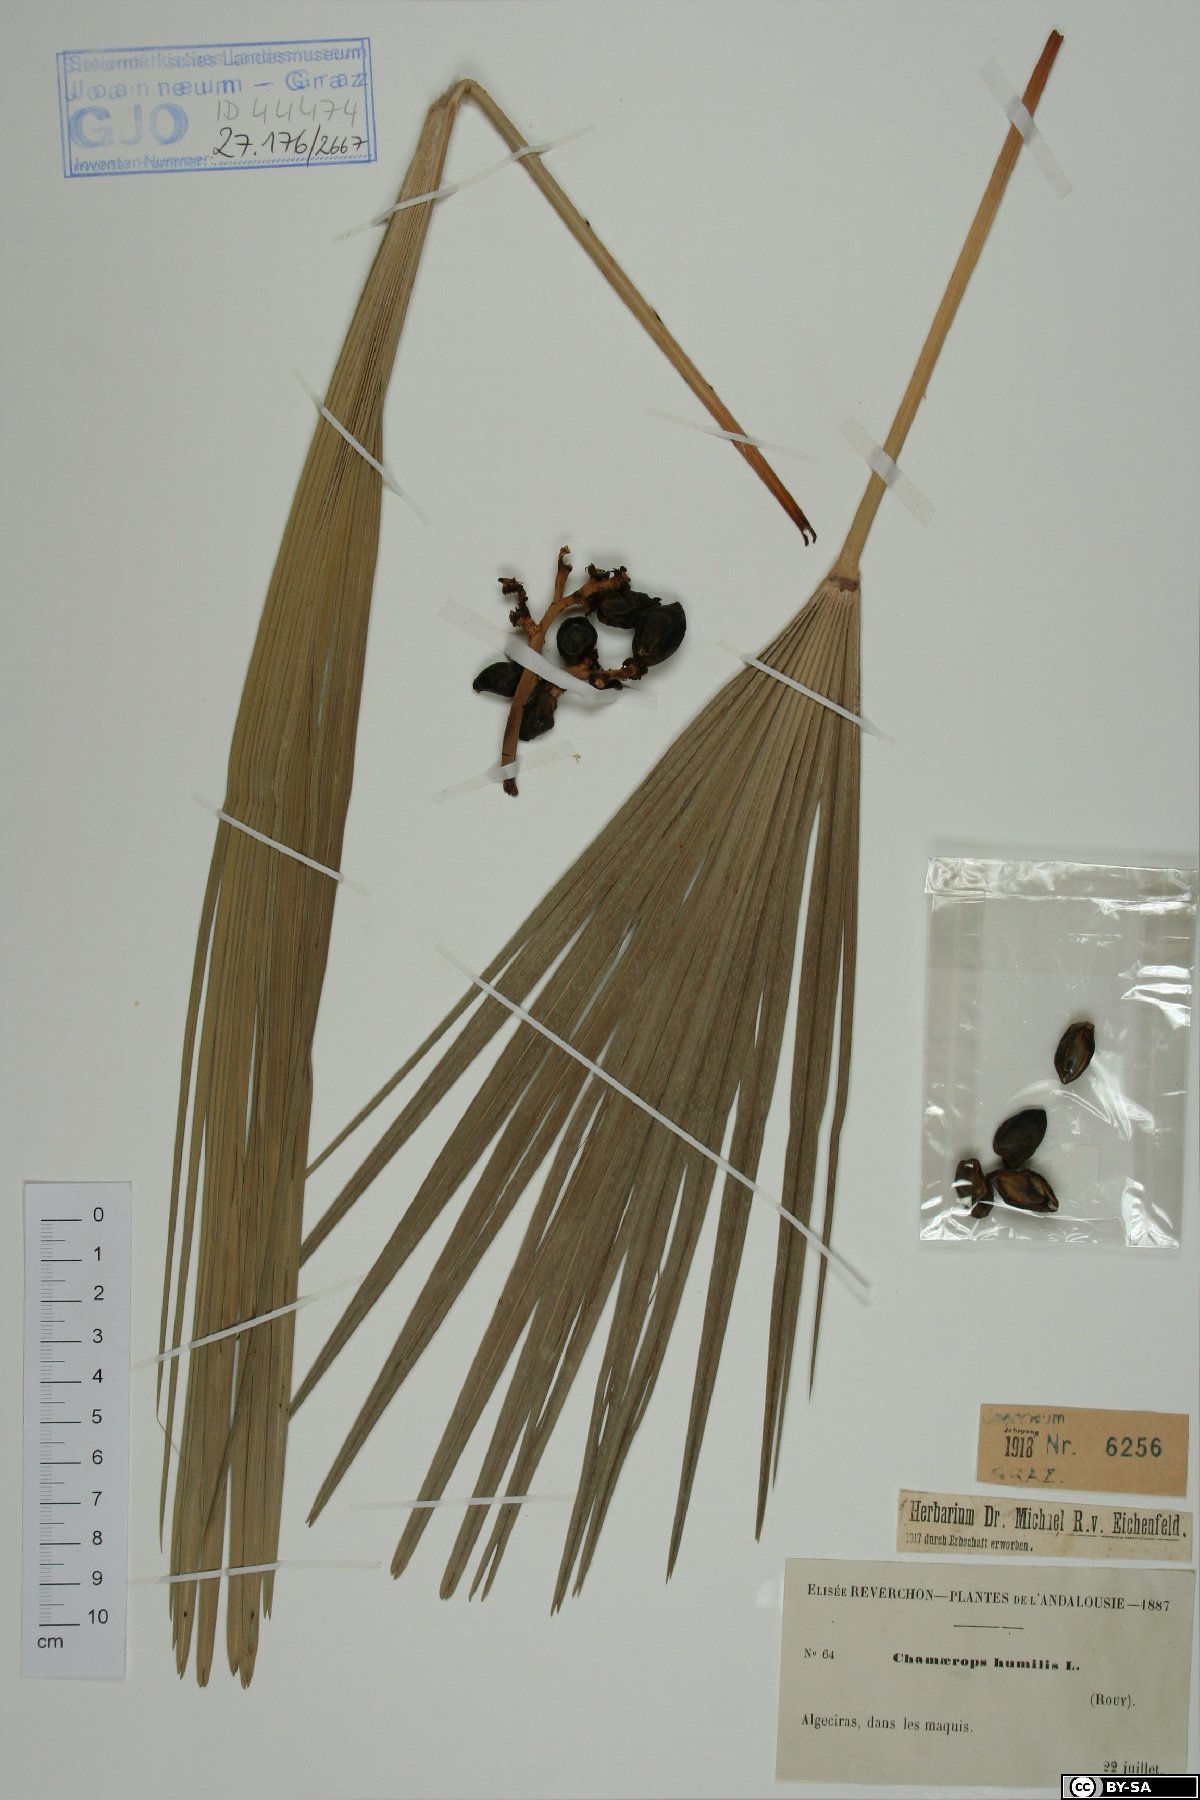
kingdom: Plantae
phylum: Tracheophyta
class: Liliopsida
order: Arecales
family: Arecaceae
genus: Chamaerops
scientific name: Chamaerops humilis
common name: Dwarf fan palm
